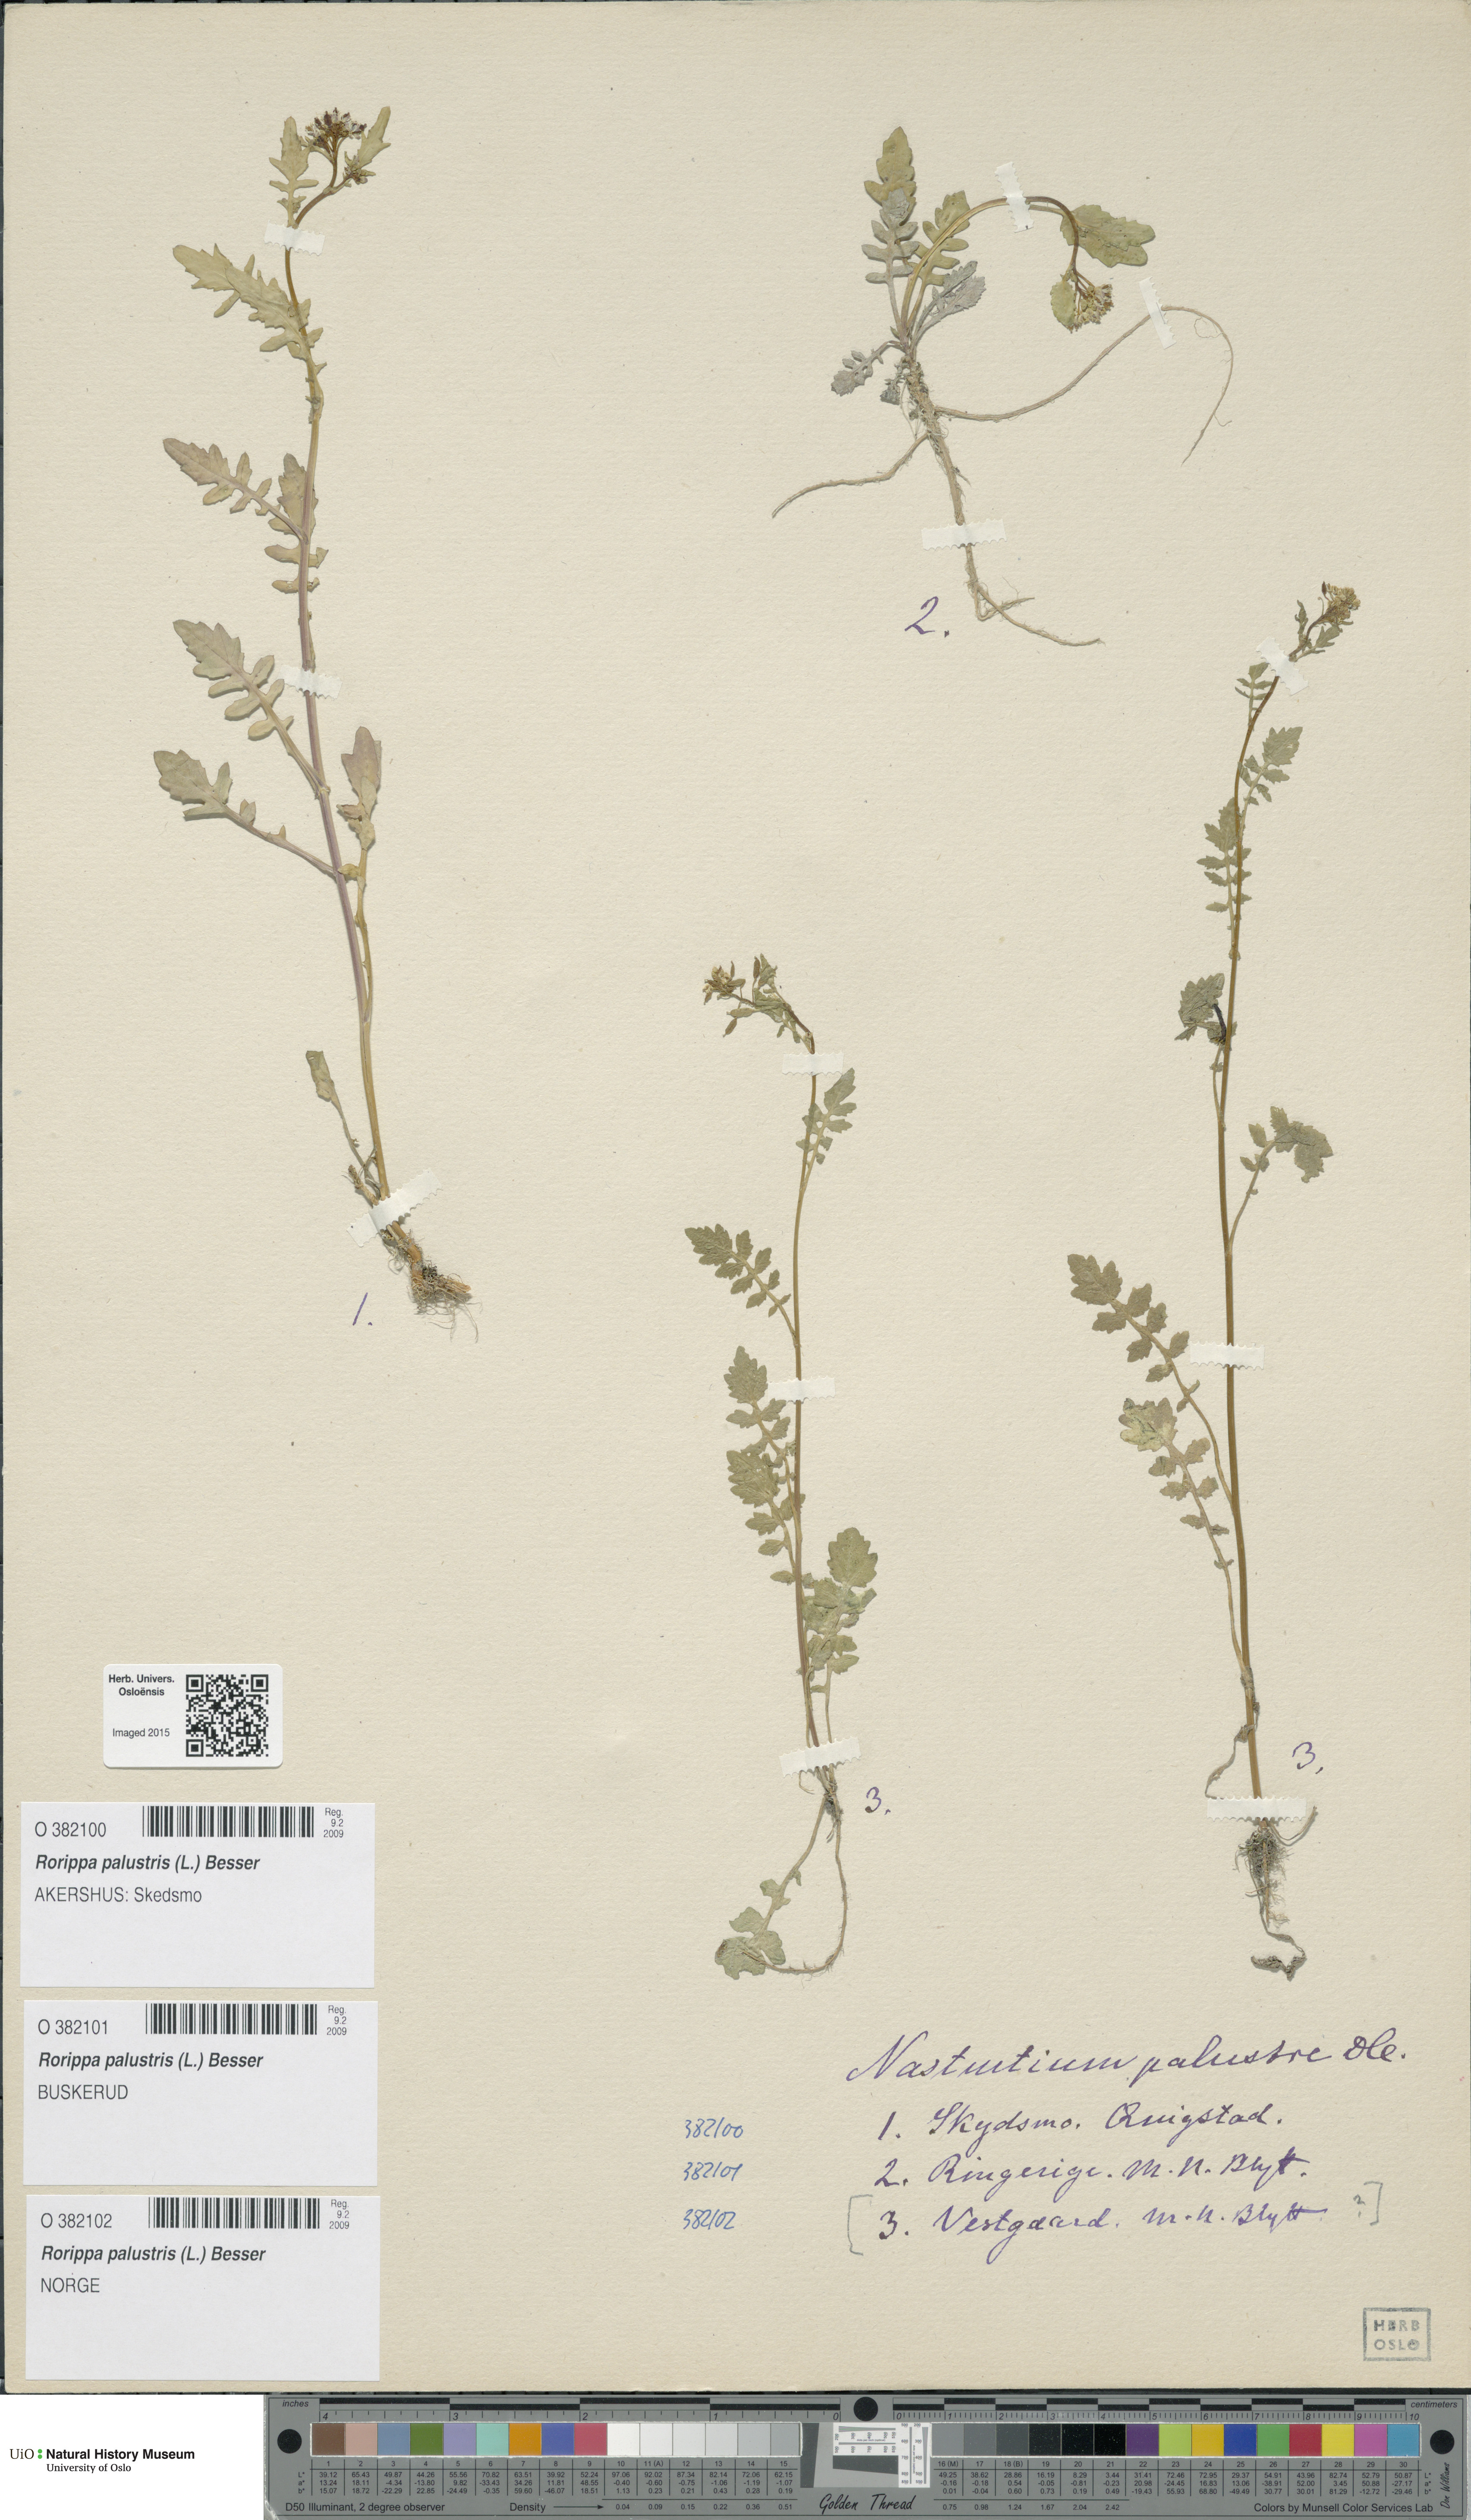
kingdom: Plantae
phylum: Tracheophyta
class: Magnoliopsida
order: Brassicales
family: Brassicaceae
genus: Rorippa
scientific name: Rorippa palustris
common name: Marsh yellow-cress
